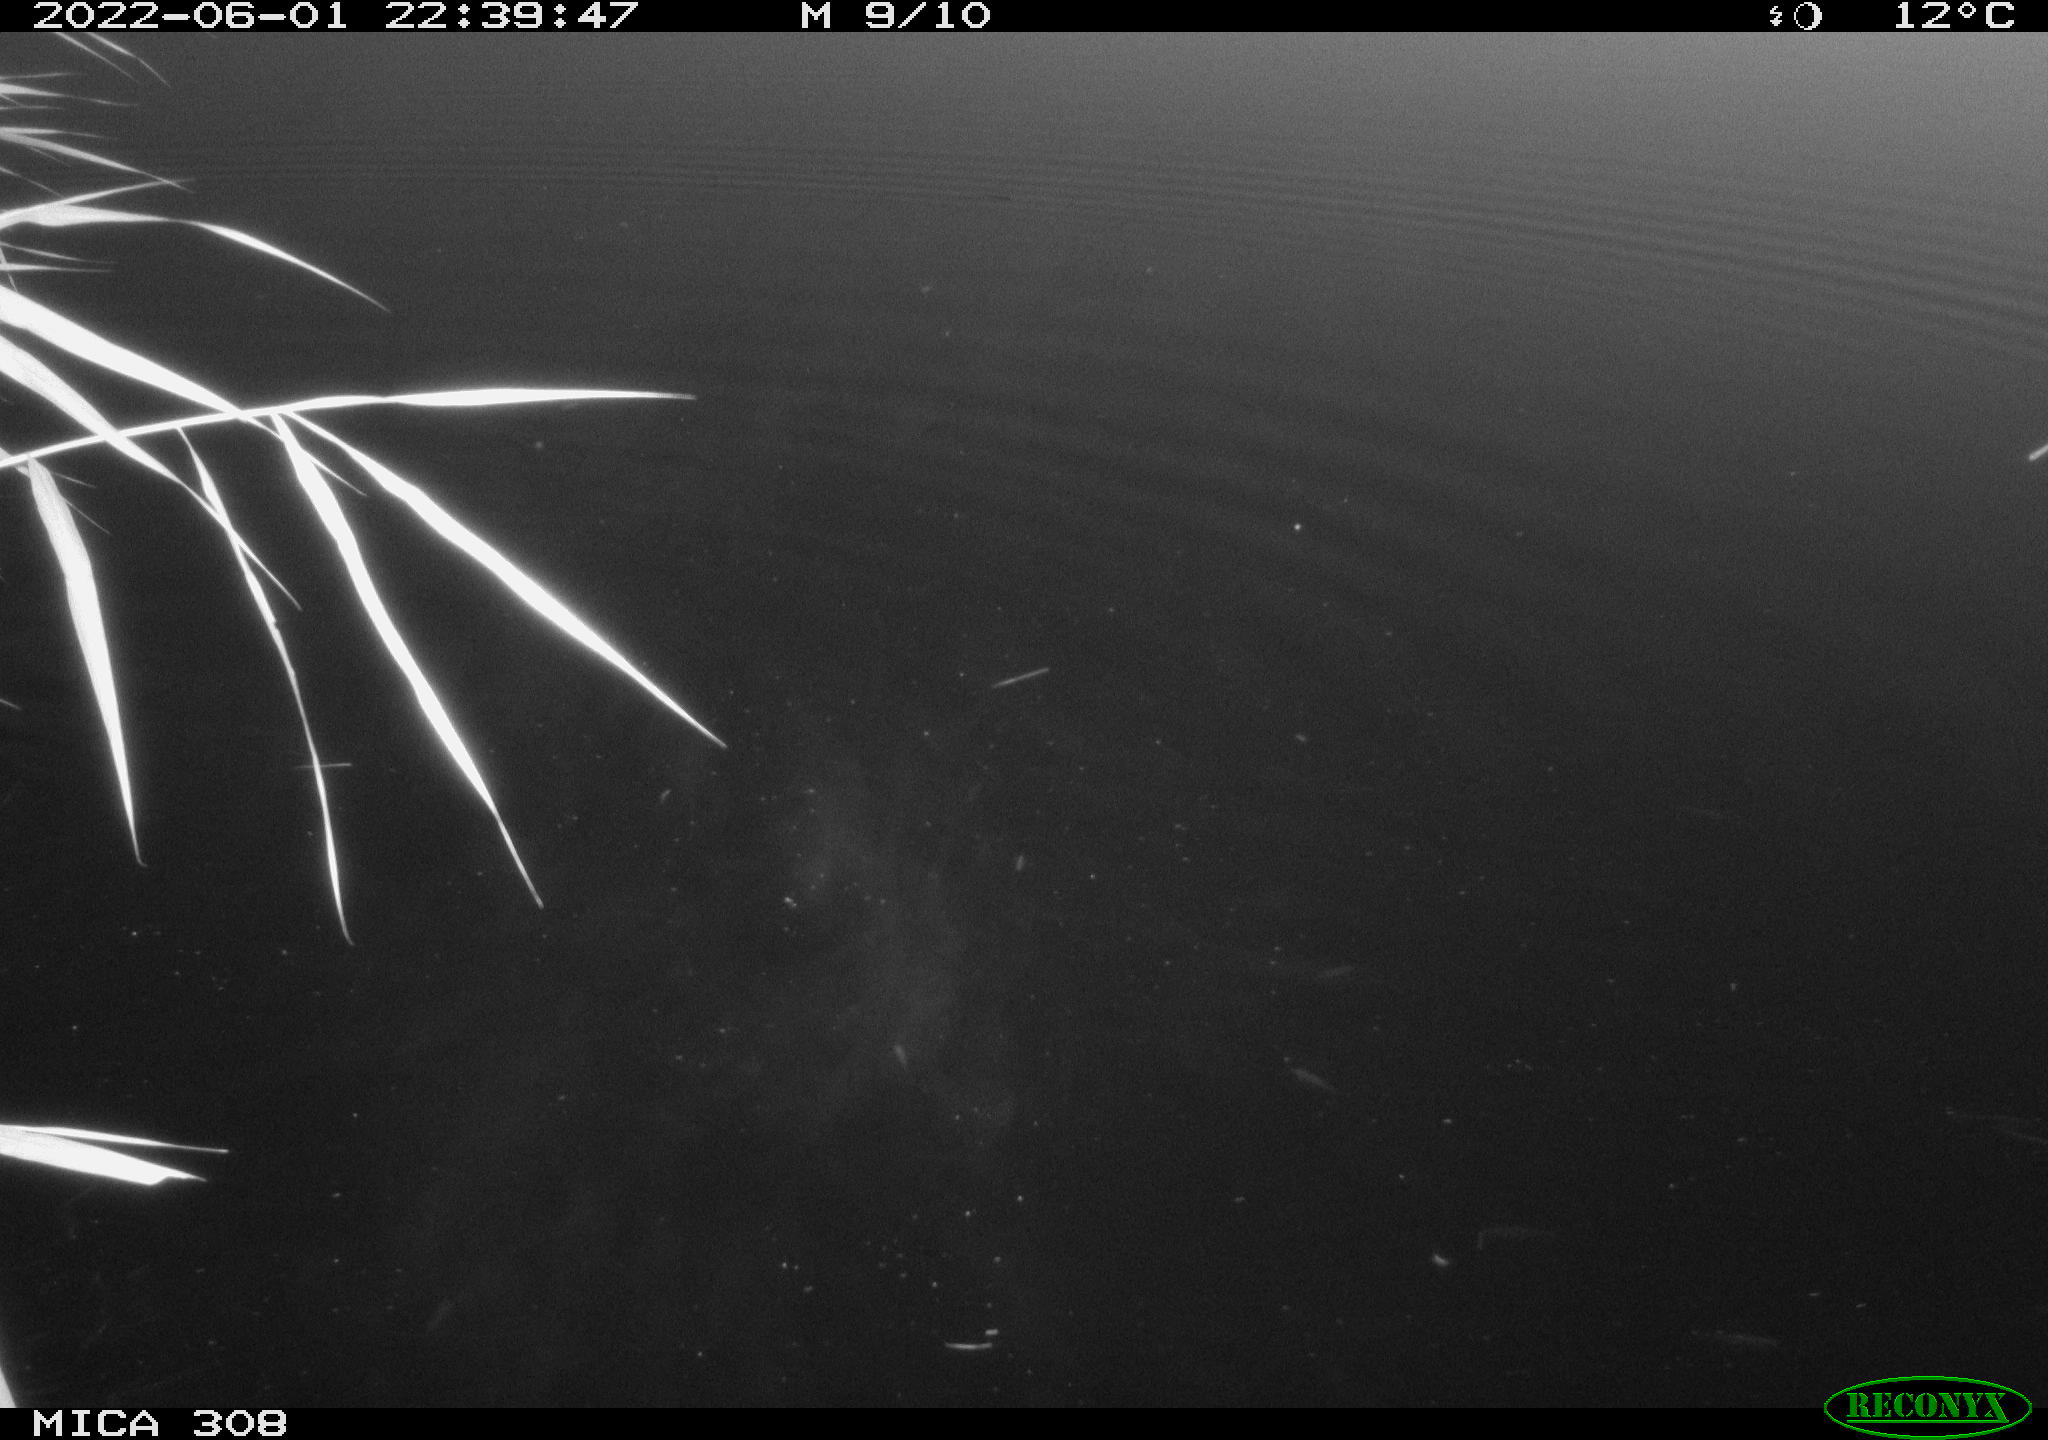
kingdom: Animalia
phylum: Chordata
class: Aves
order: Anseriformes
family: Anatidae
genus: Anas
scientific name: Anas platyrhynchos
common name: Mallard
